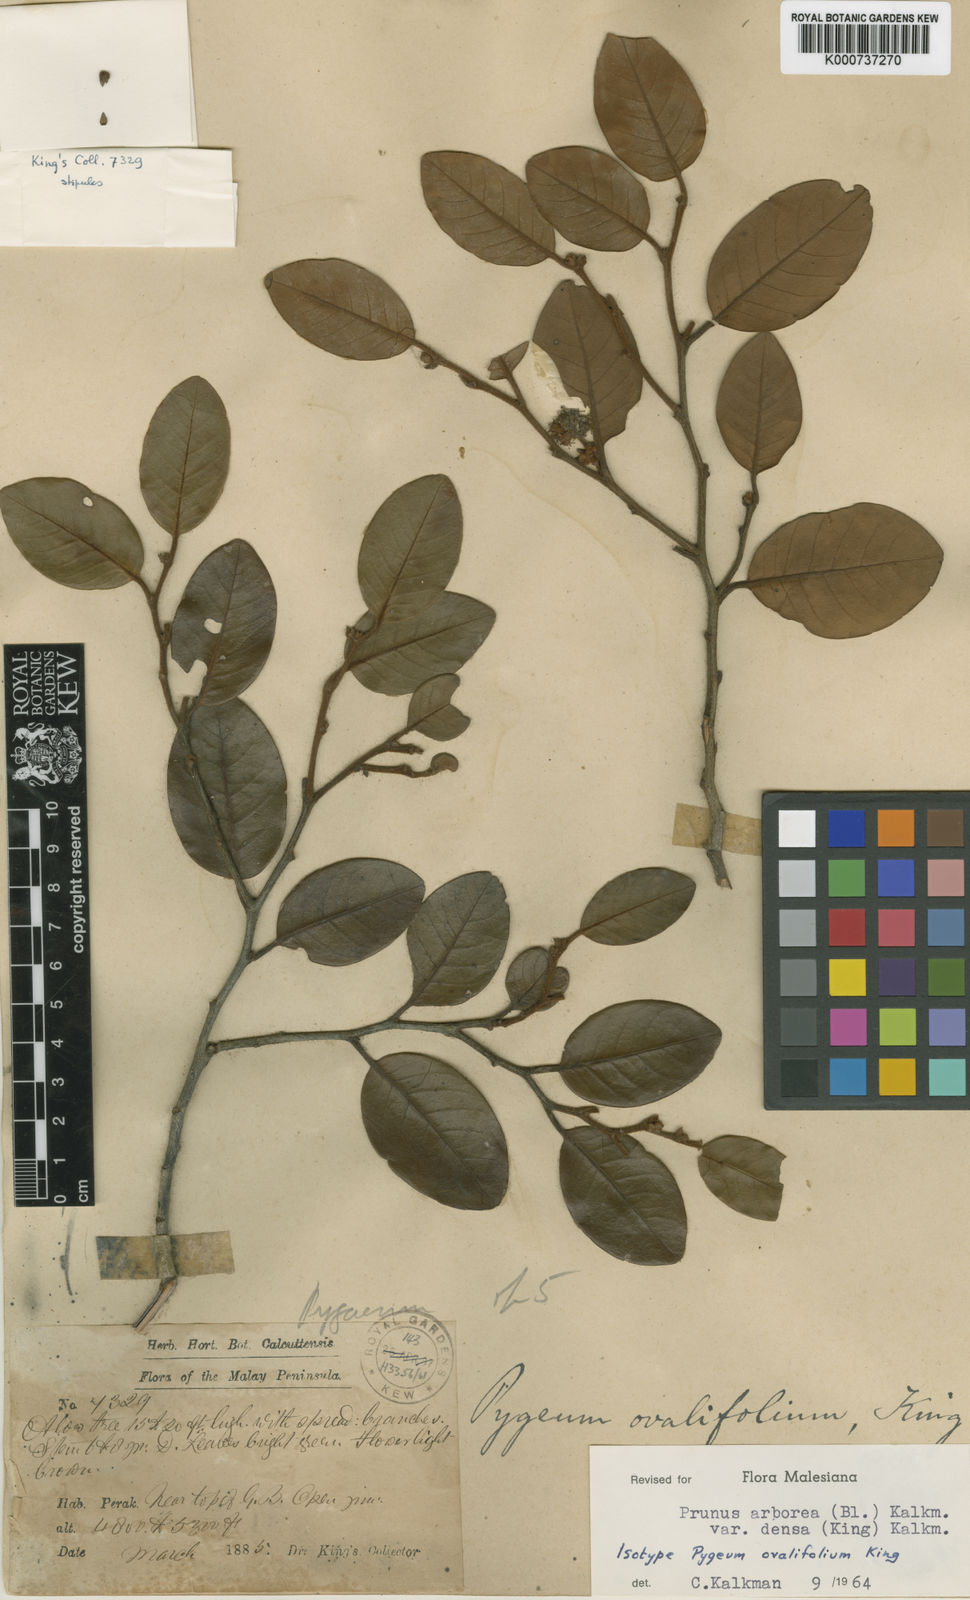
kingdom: Plantae
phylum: Tracheophyta
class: Magnoliopsida
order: Rosales
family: Rosaceae
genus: Prunus
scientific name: Prunus
